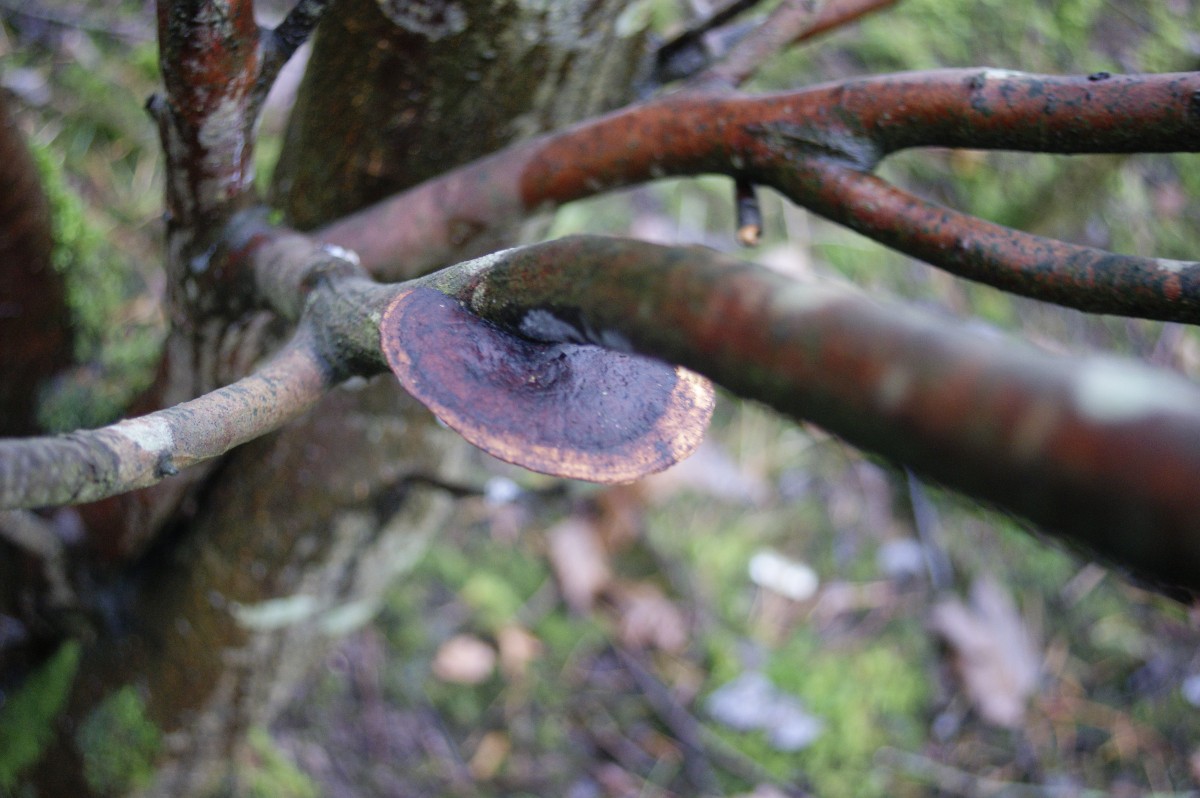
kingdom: Fungi
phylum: Basidiomycota
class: Agaricomycetes
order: Polyporales
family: Polyporaceae
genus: Daedaleopsis
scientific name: Daedaleopsis confragosa
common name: rødmende læderporesvamp
